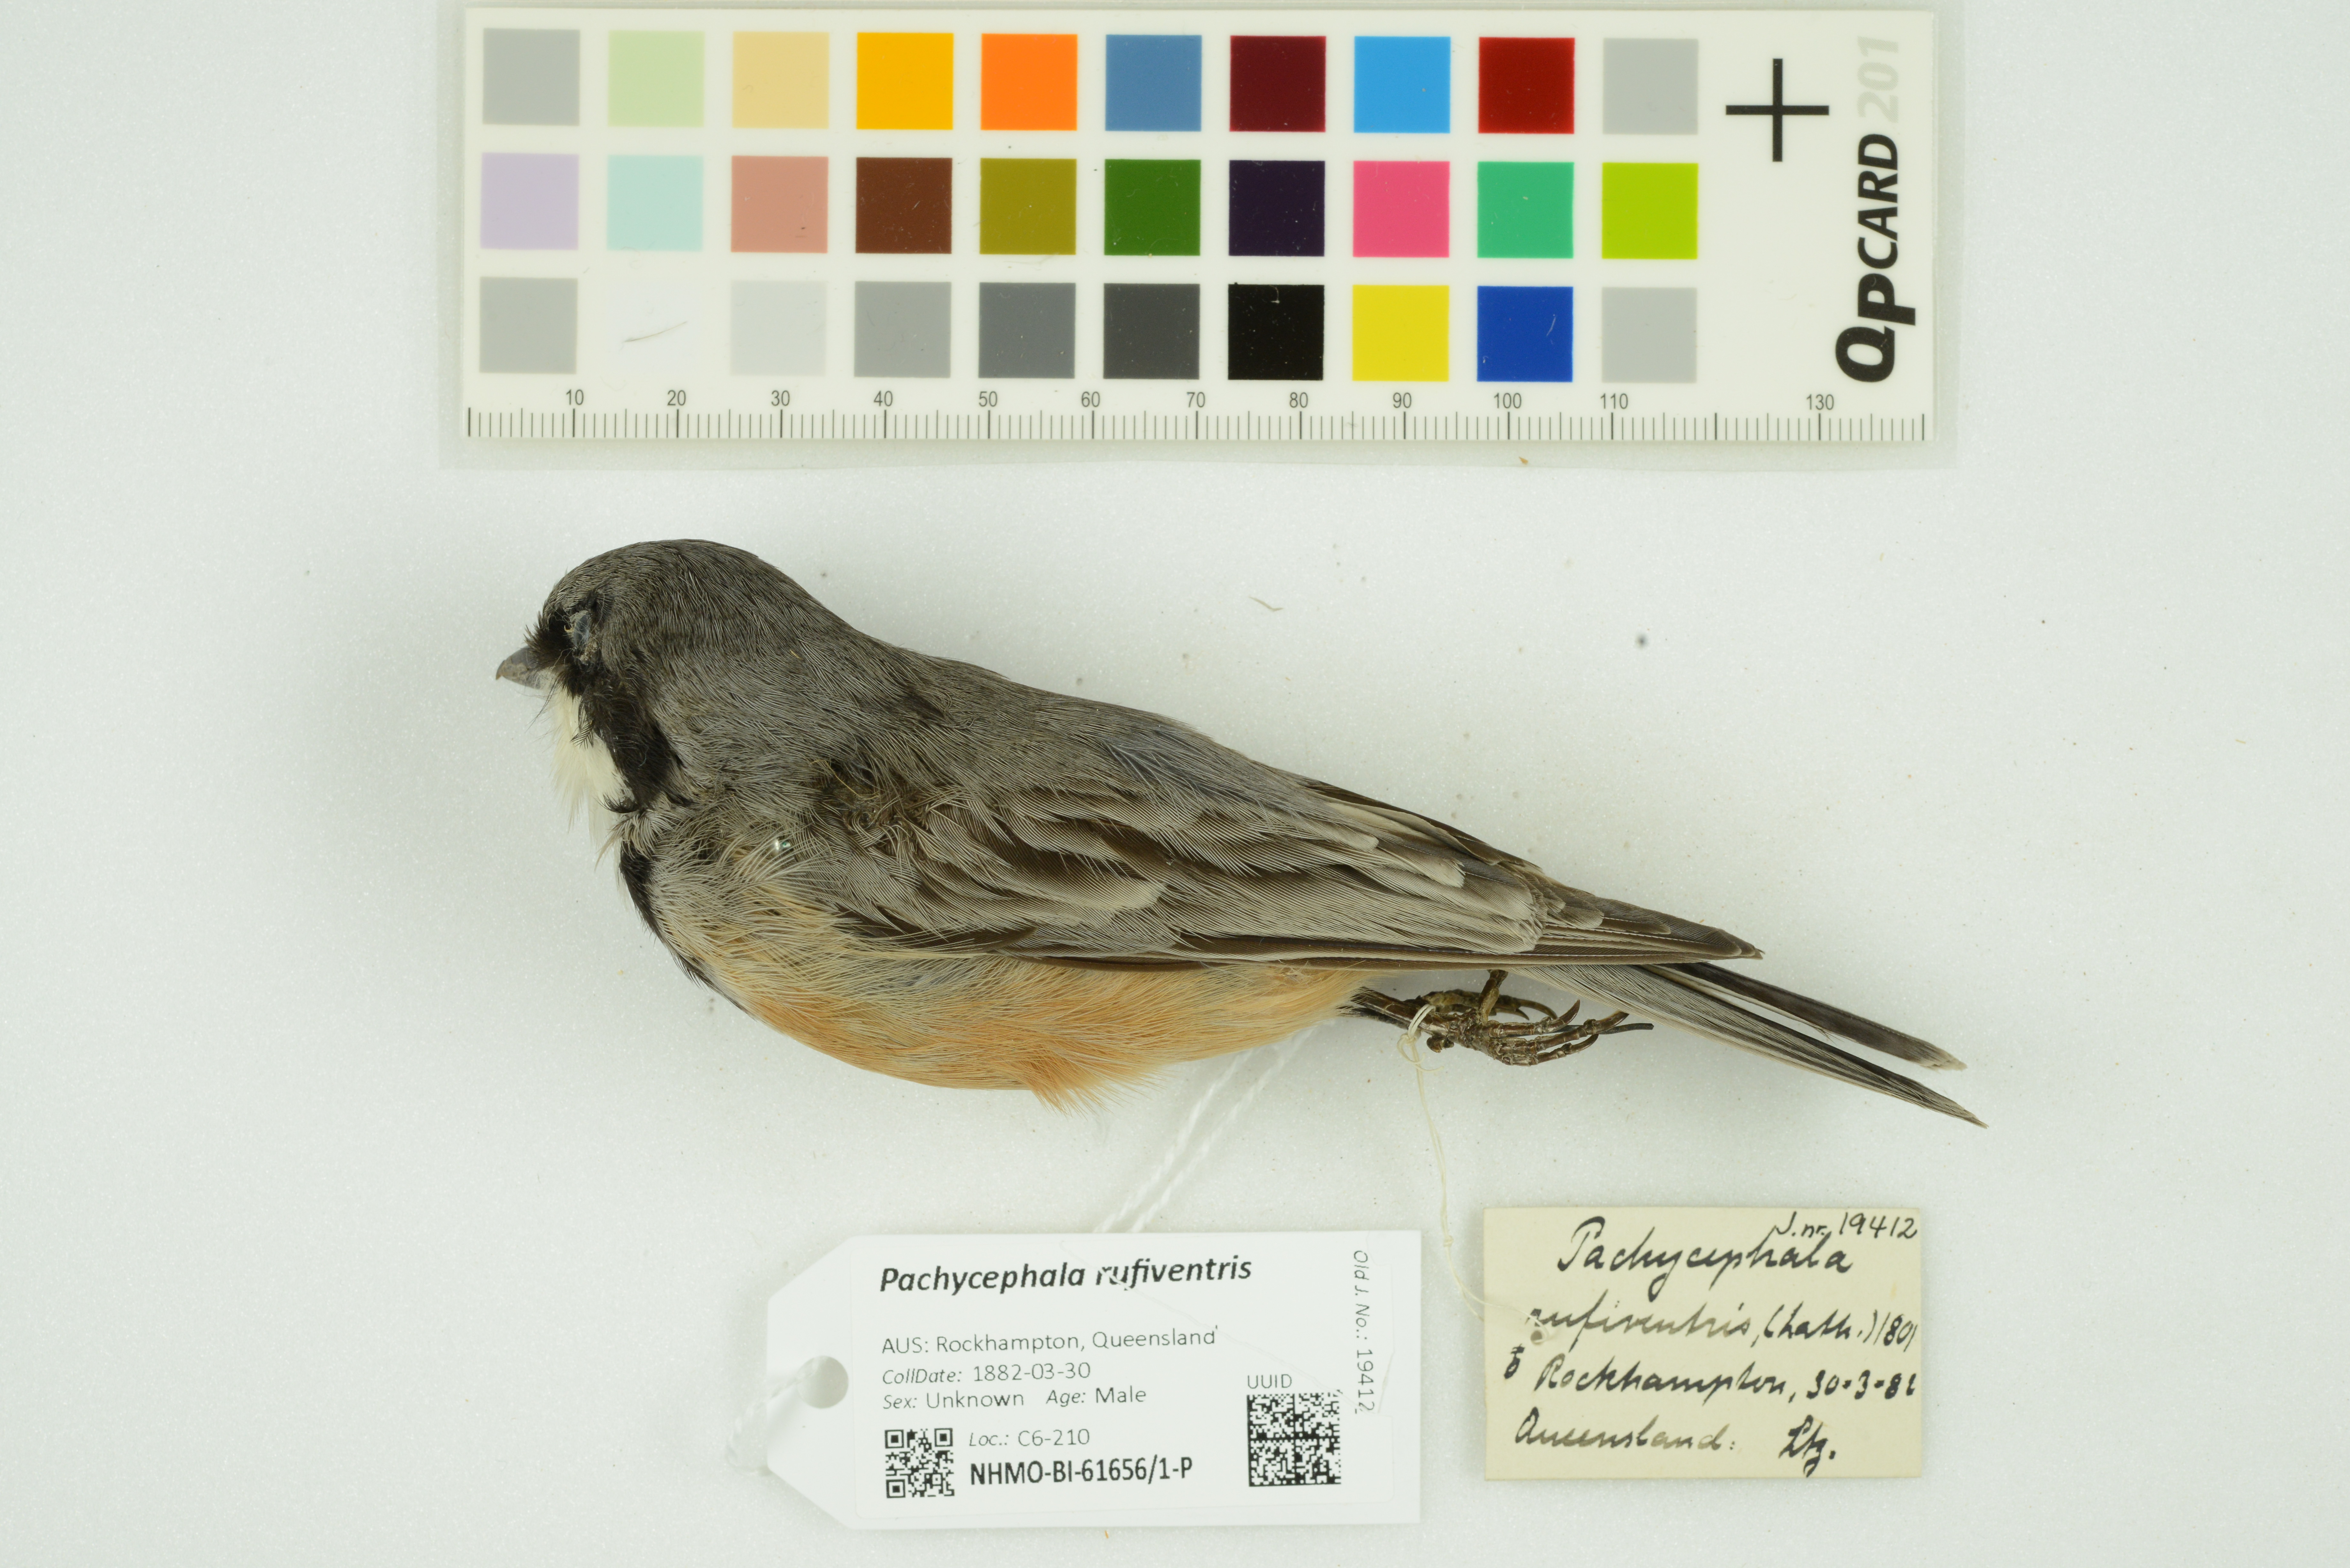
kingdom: Animalia
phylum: Chordata
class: Aves
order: Passeriformes
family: Pachycephalidae
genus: Pachycephala
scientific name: Pachycephala rufiventris
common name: Rufous whistler
